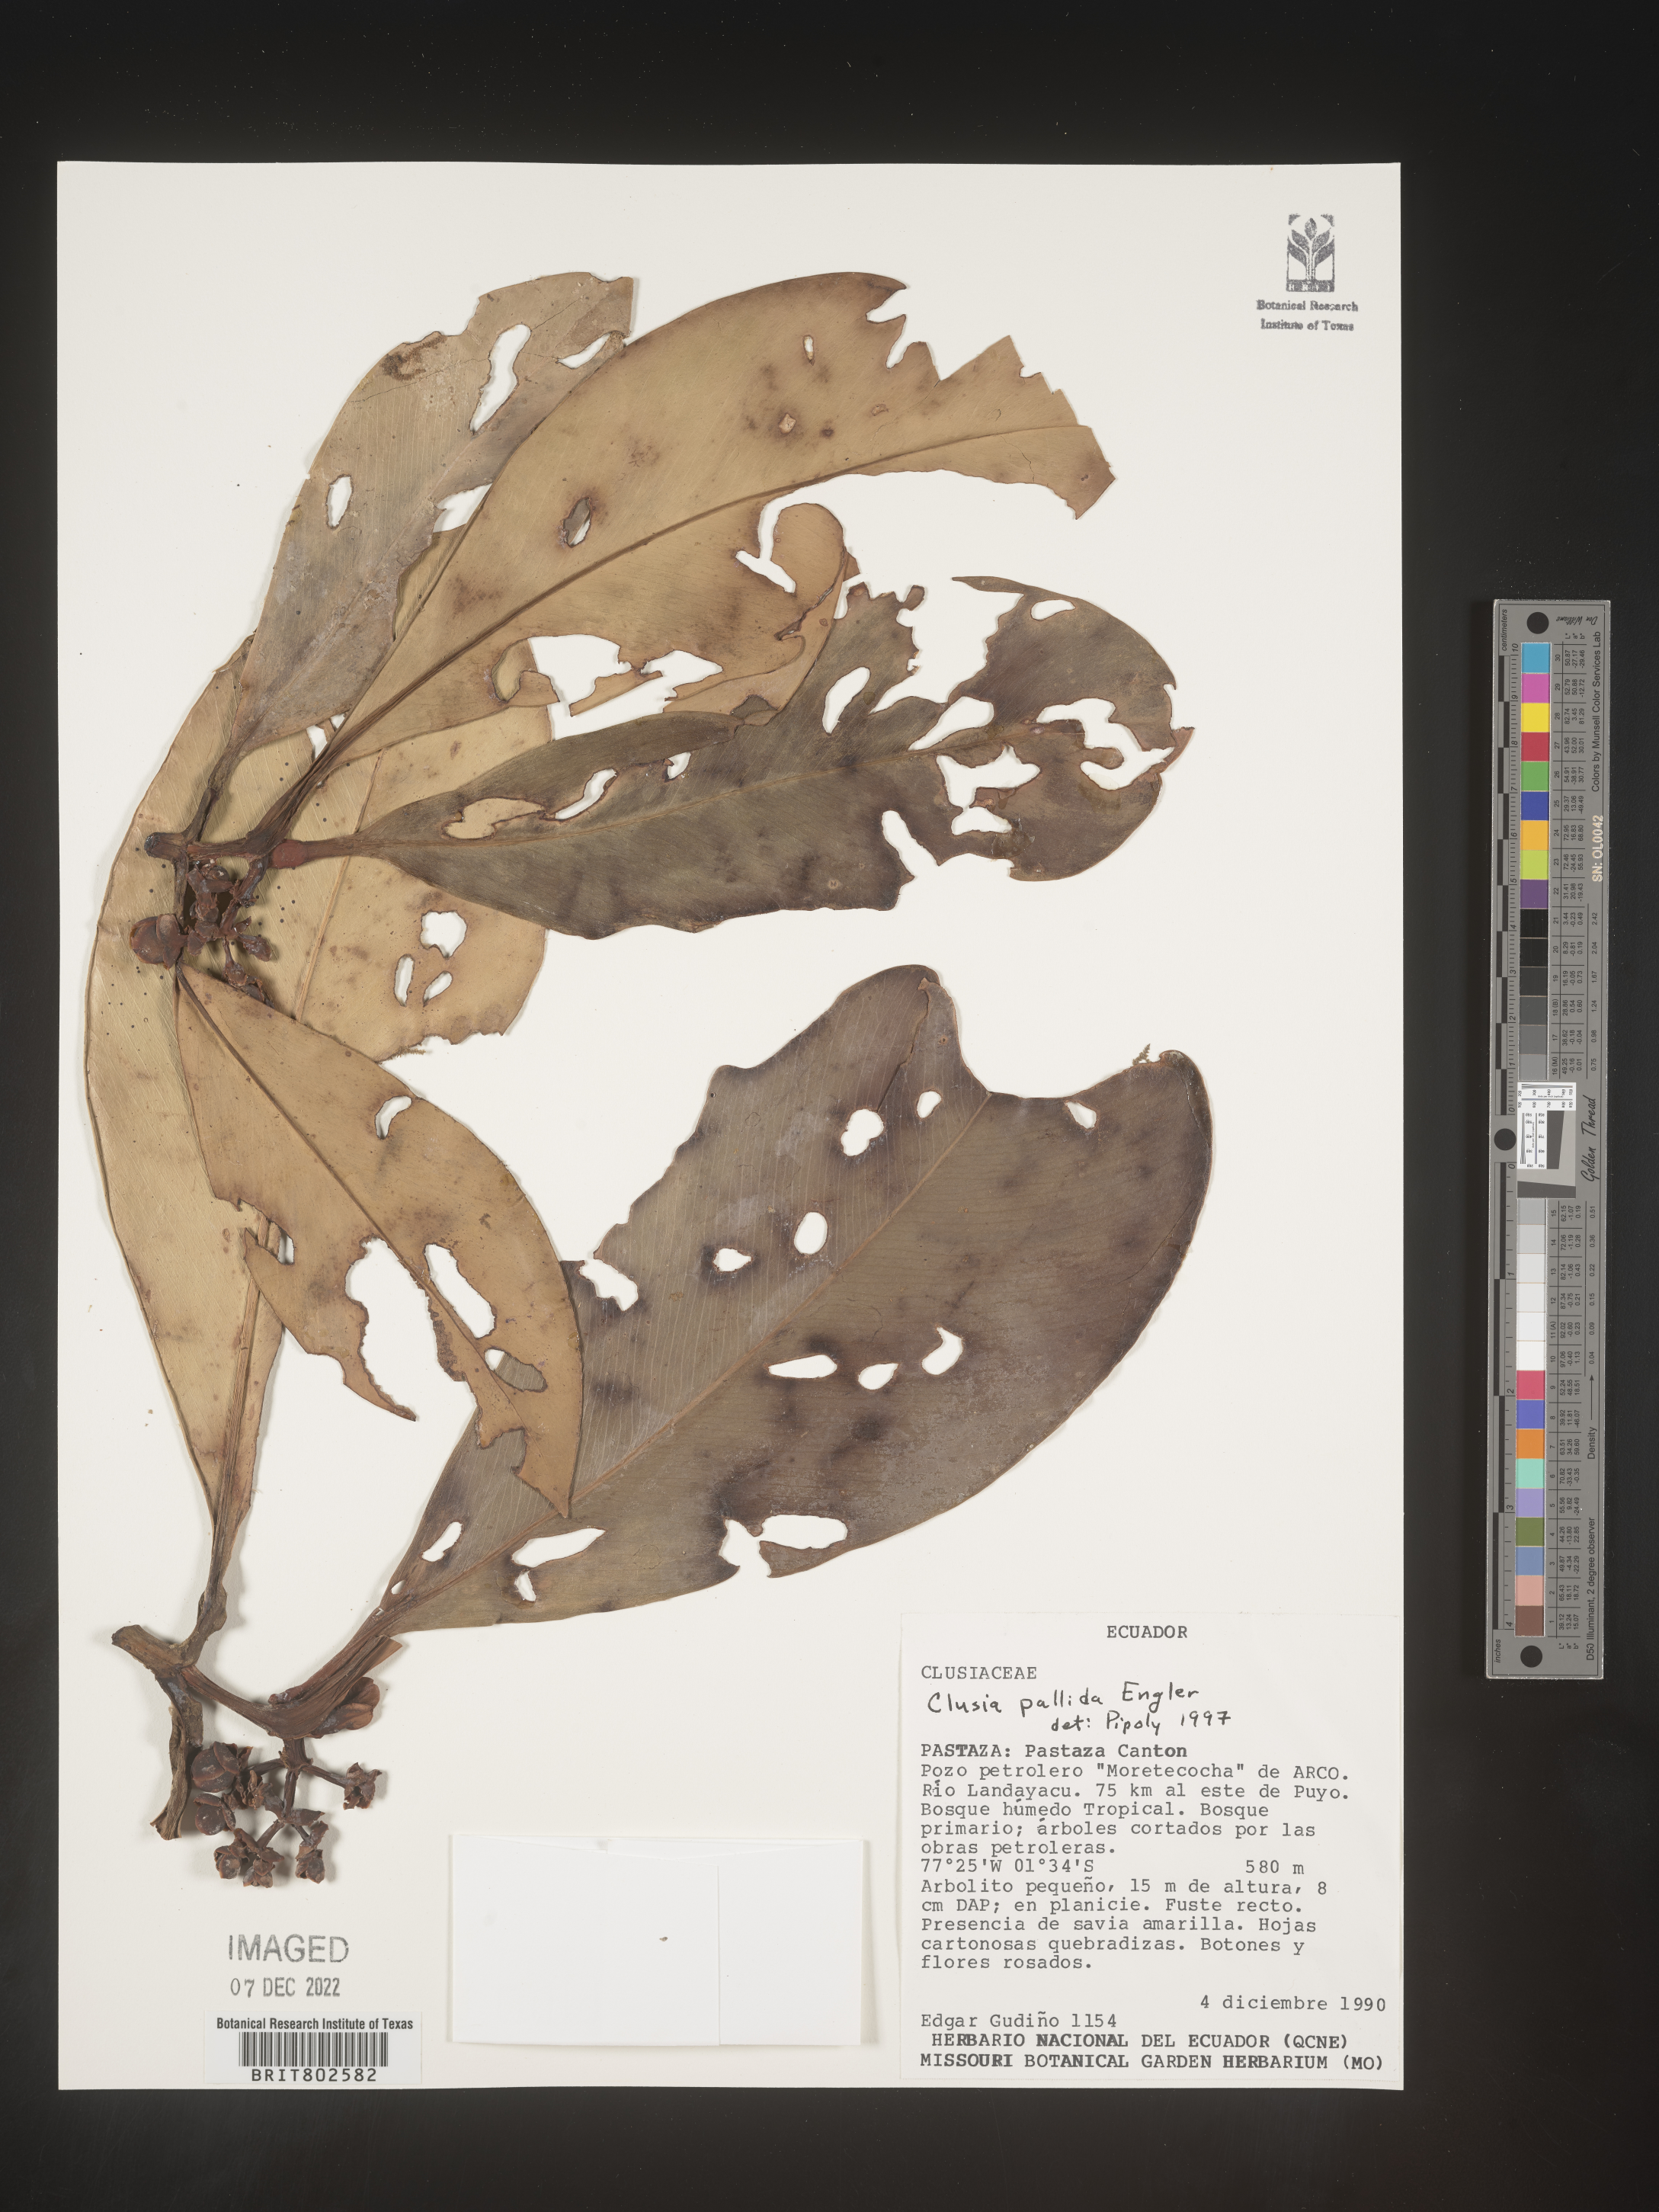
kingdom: Plantae
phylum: Tracheophyta
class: Magnoliopsida
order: Malpighiales
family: Clusiaceae
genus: Clusia
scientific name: Clusia pallida
